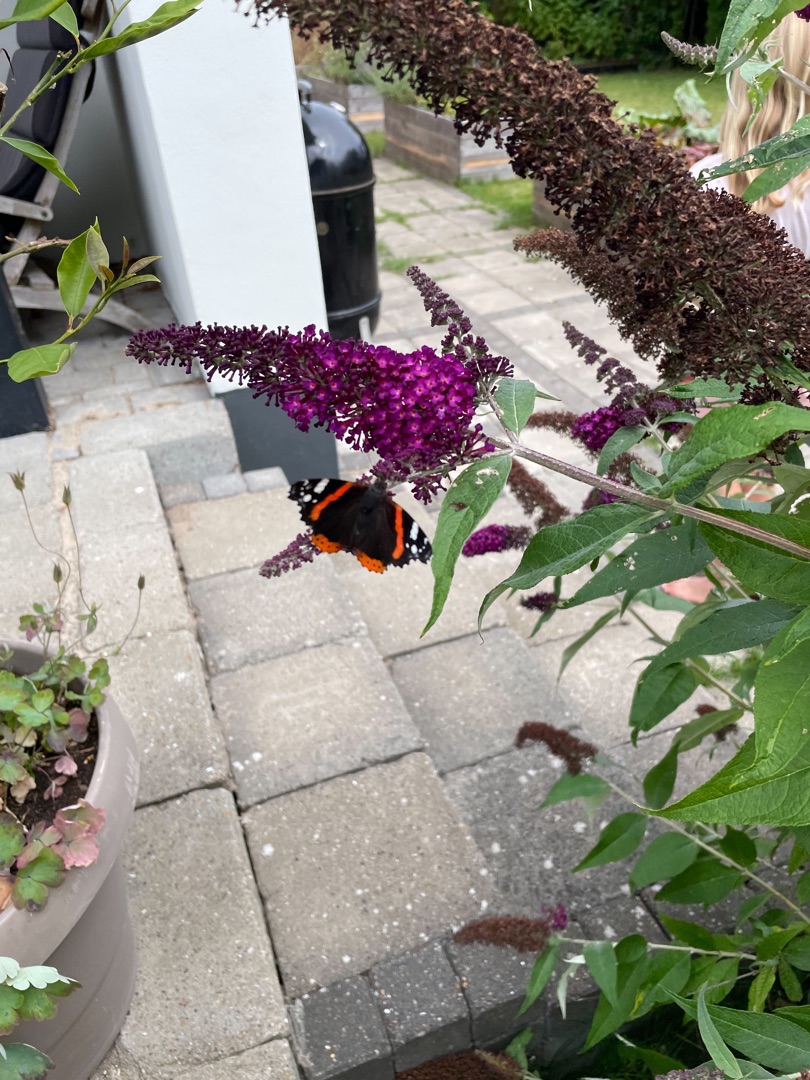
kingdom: Animalia
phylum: Arthropoda
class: Insecta
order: Lepidoptera
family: Nymphalidae
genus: Vanessa
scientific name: Vanessa atalanta
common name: Admiral
